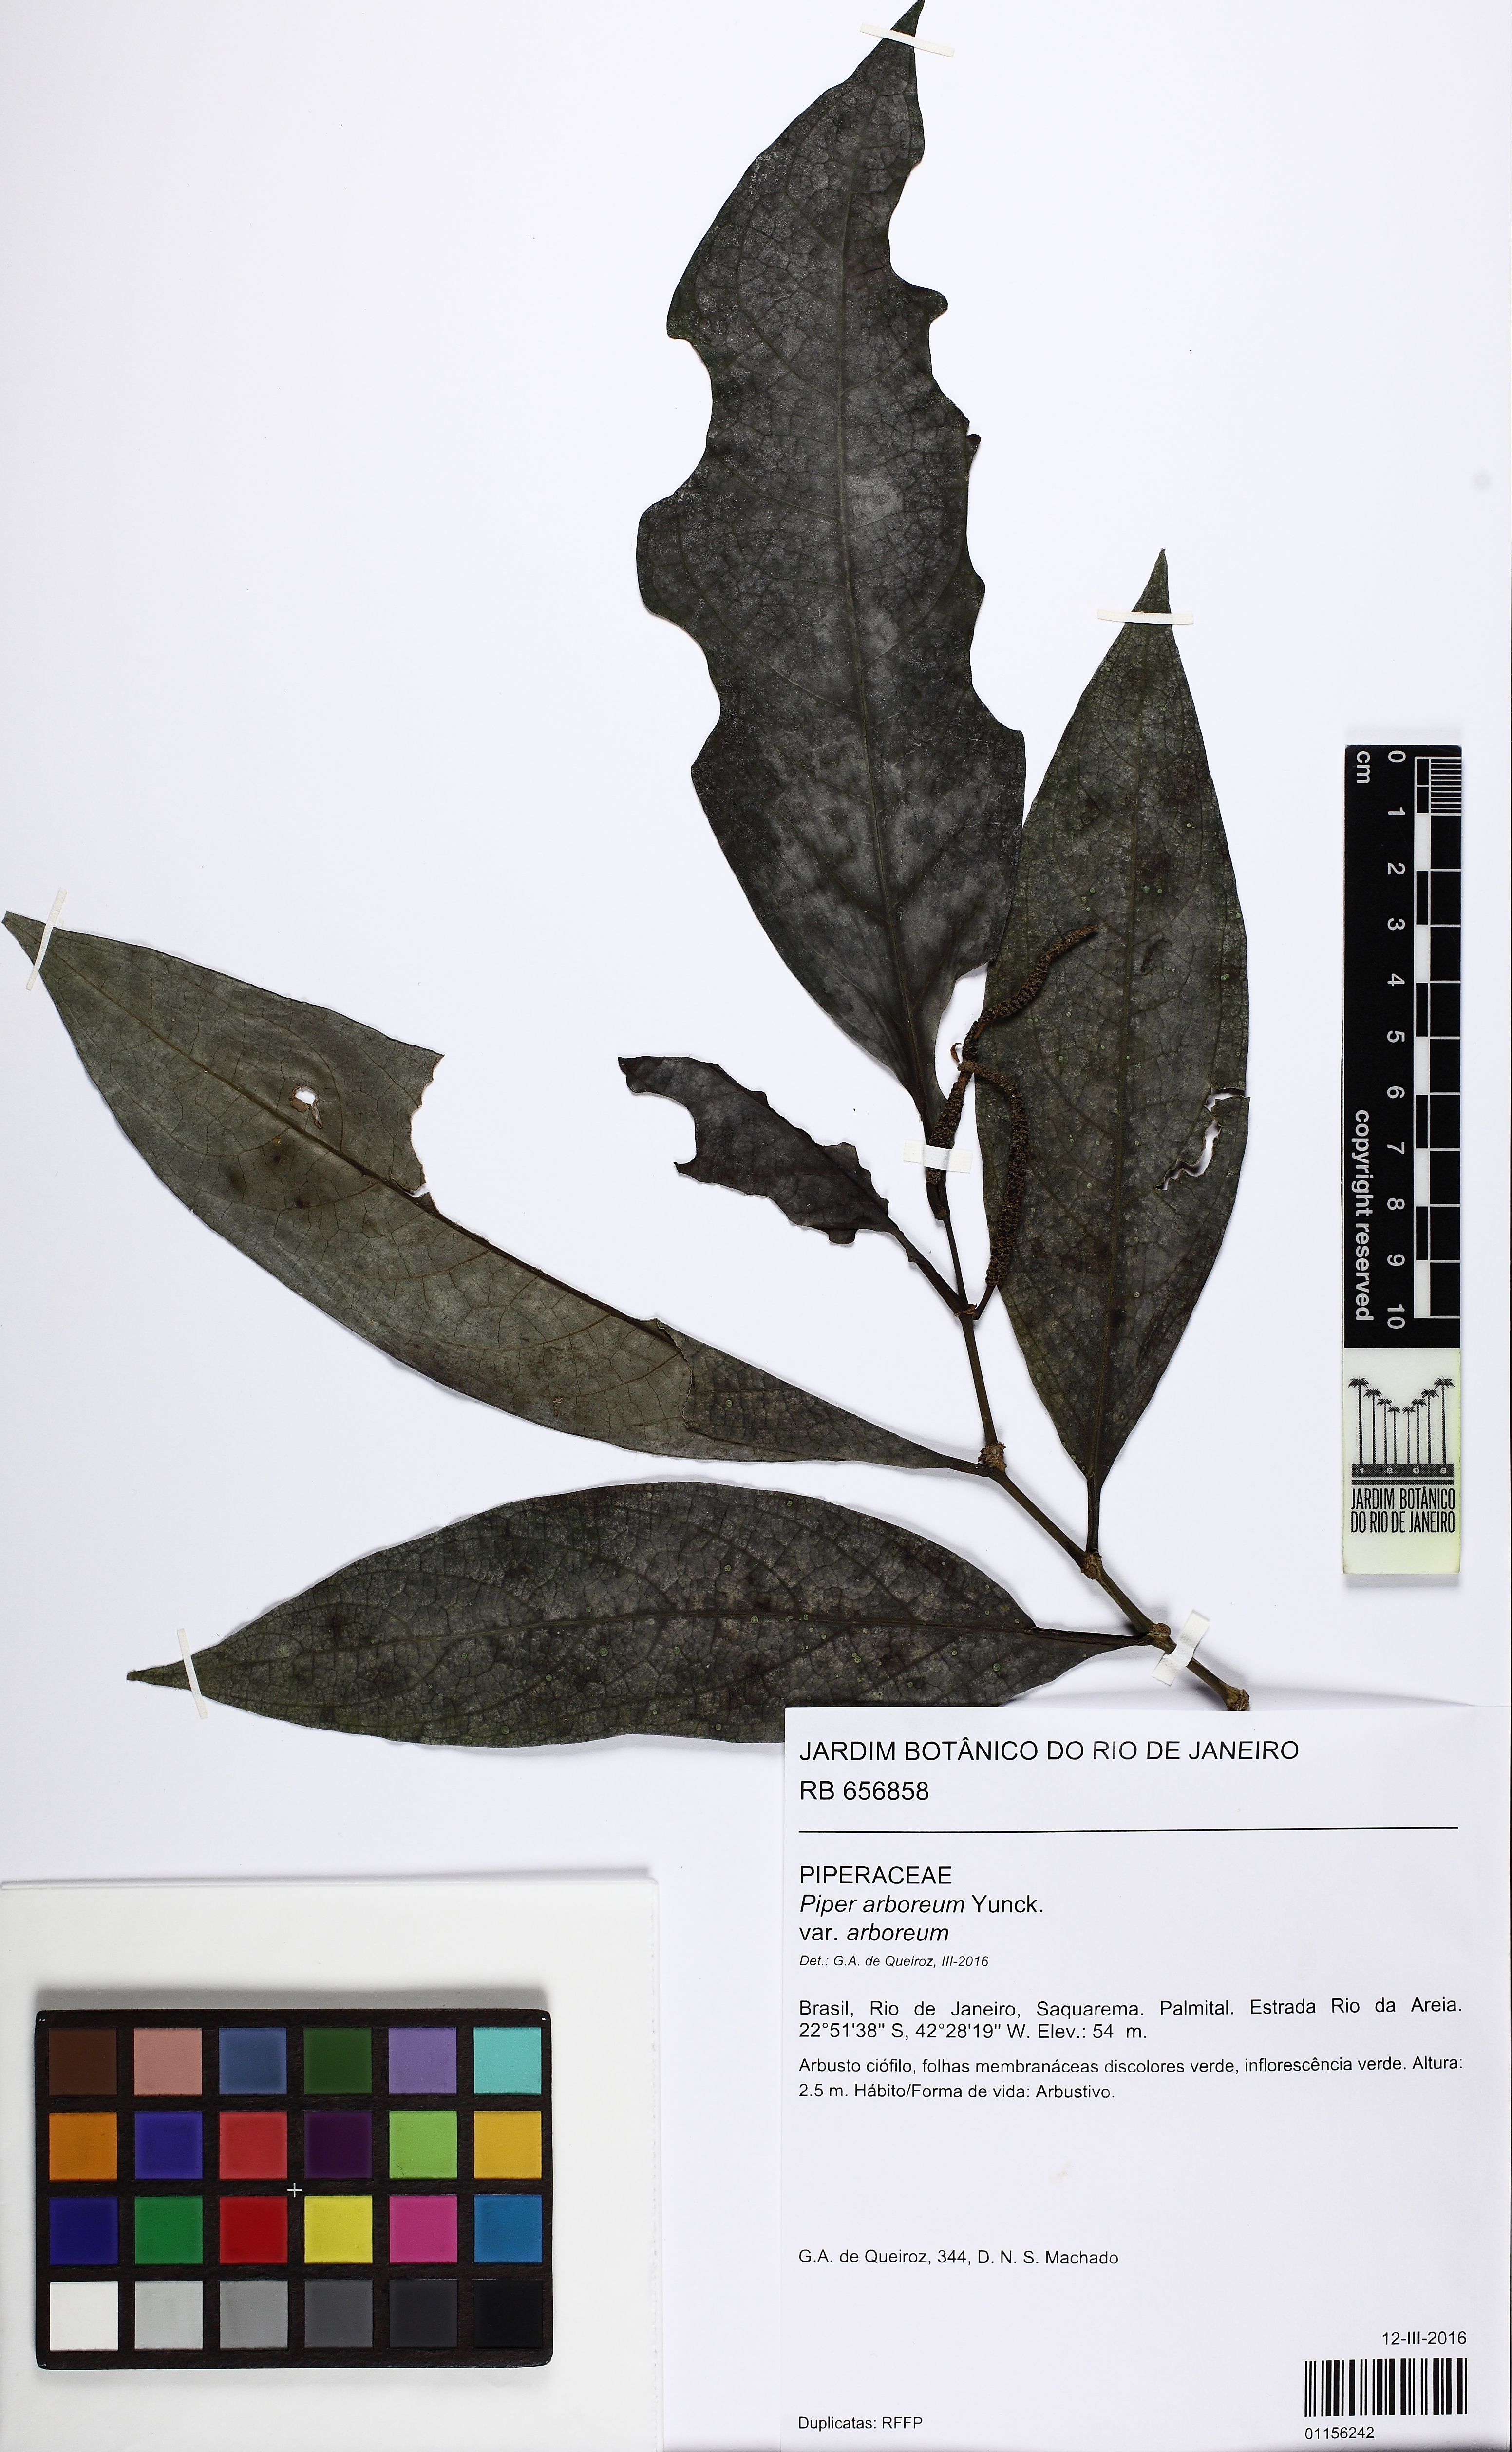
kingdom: Plantae
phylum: Tracheophyta
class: Magnoliopsida
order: Piperales
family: Piperaceae
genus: Piper
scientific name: Piper arboreum
